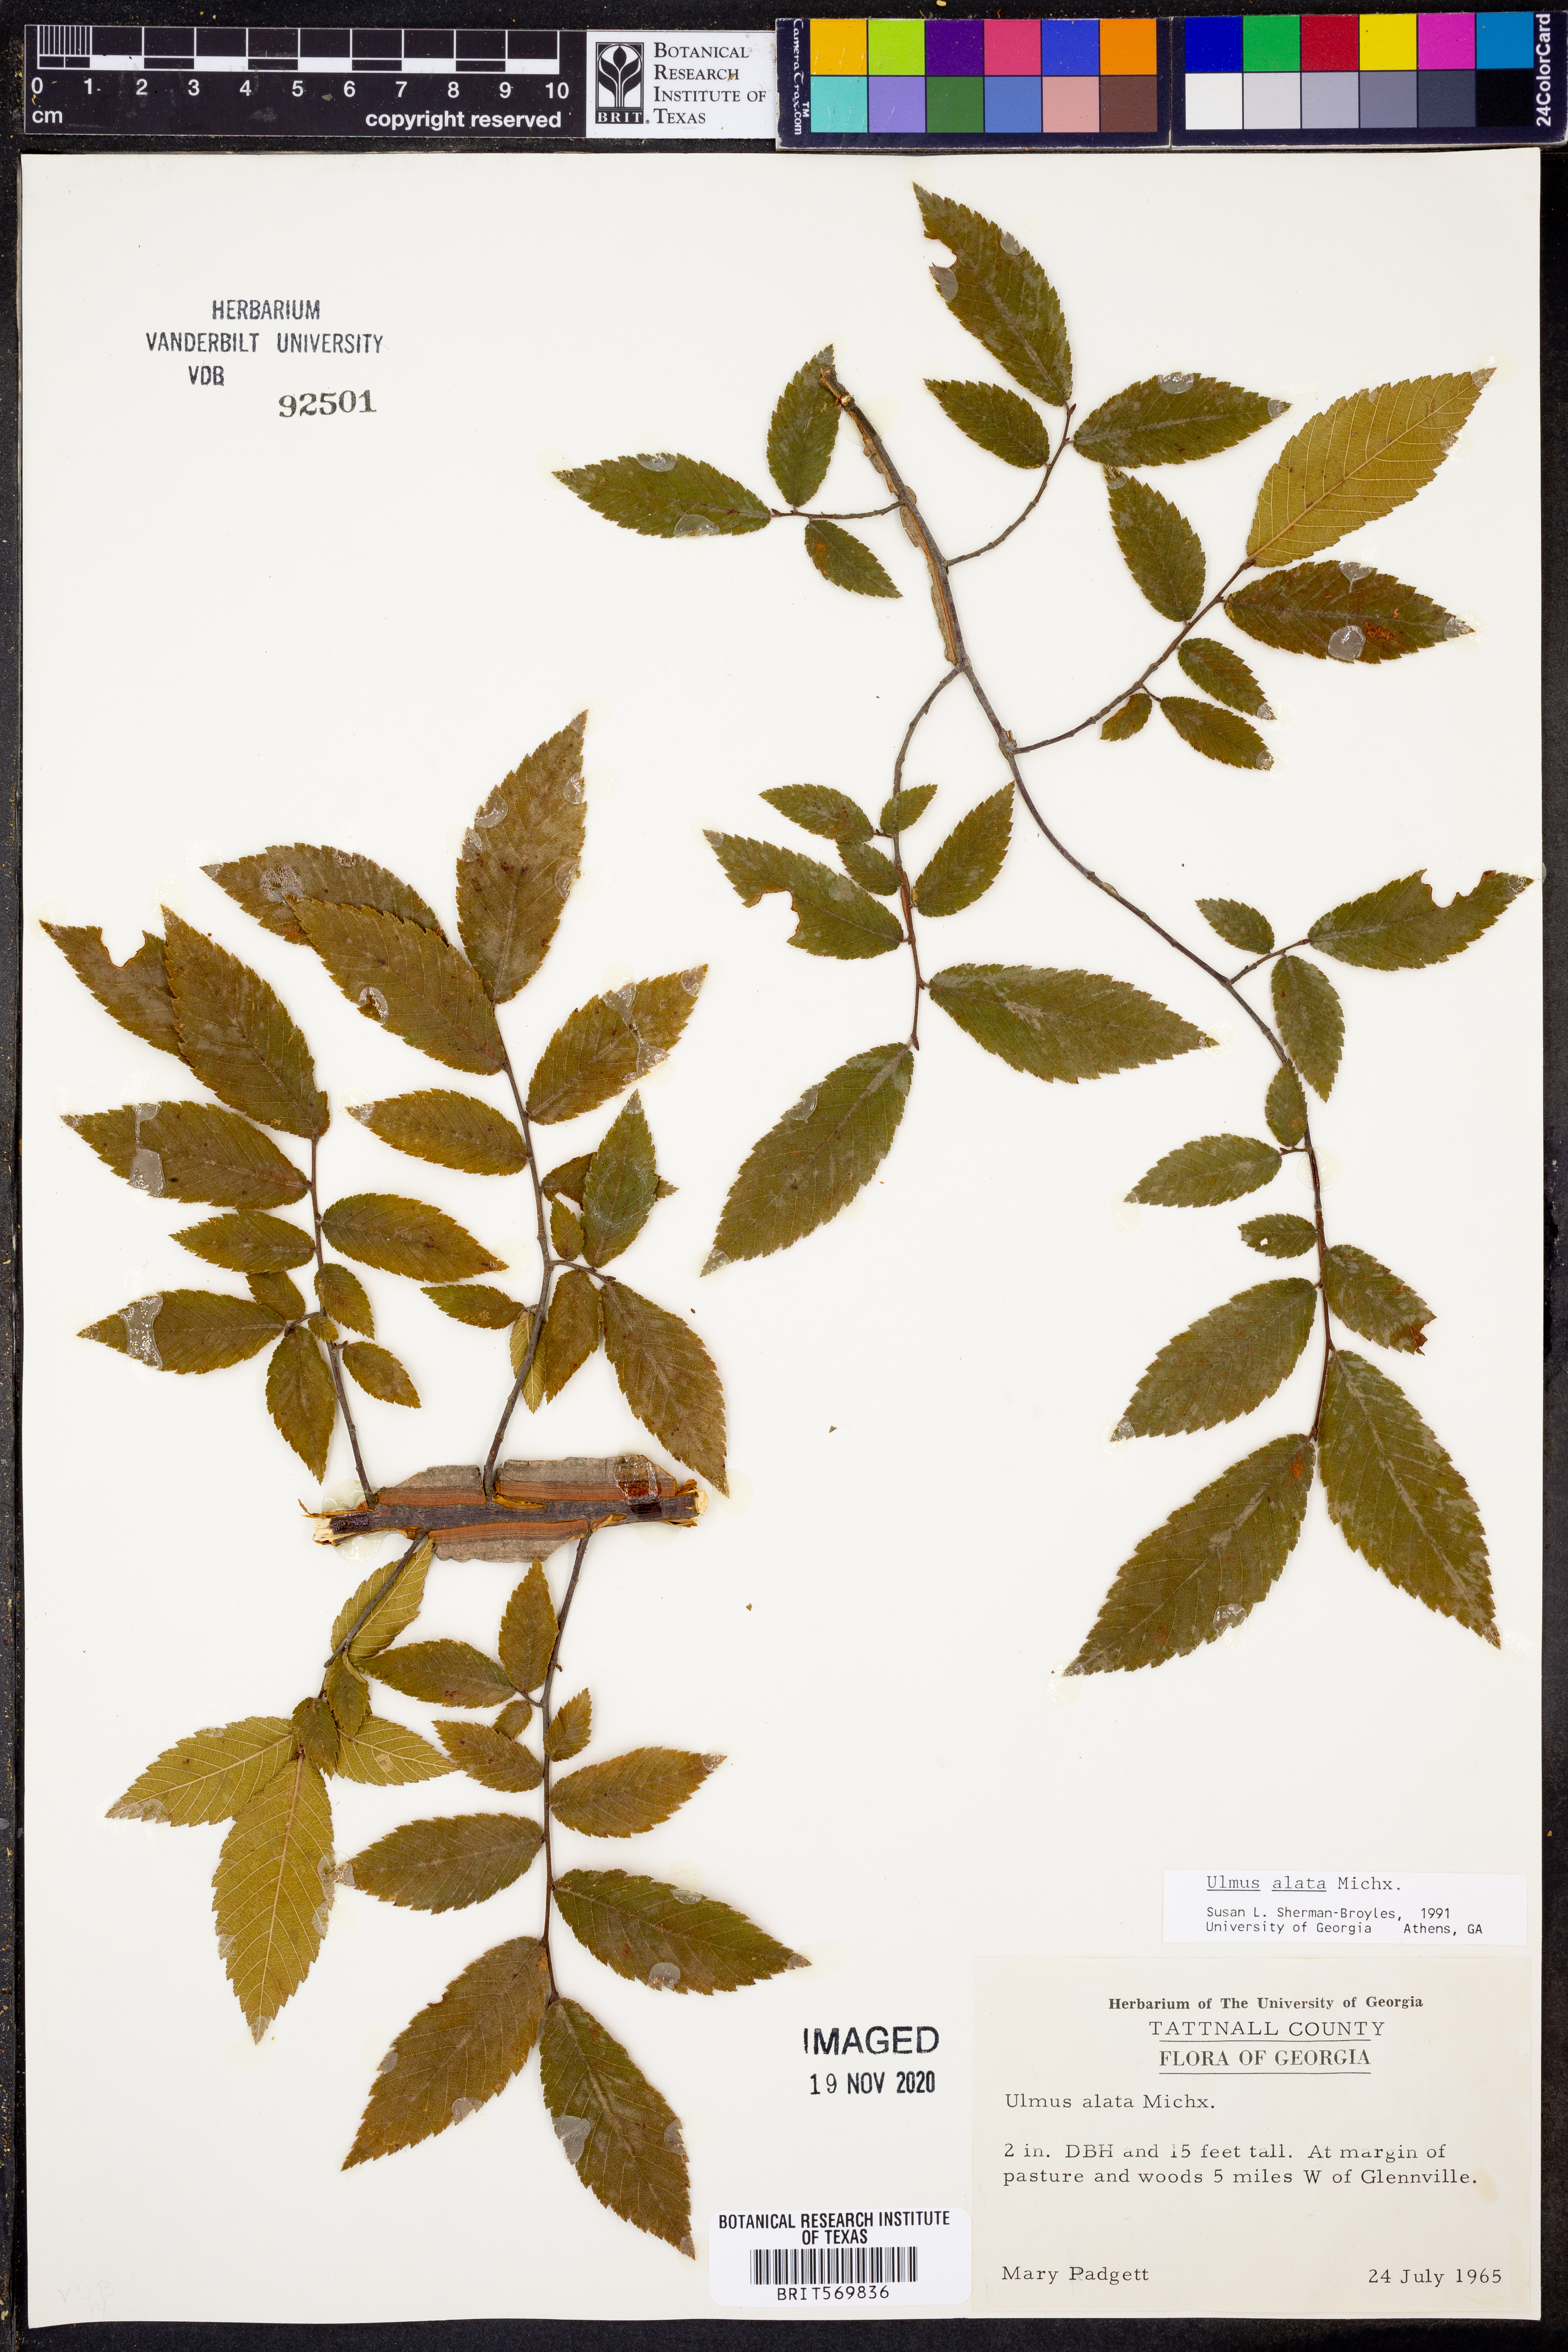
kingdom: Plantae
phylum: Tracheophyta
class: Magnoliopsida
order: Rosales
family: Ulmaceae
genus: Ulmus
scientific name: Ulmus alata
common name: Winged elm
